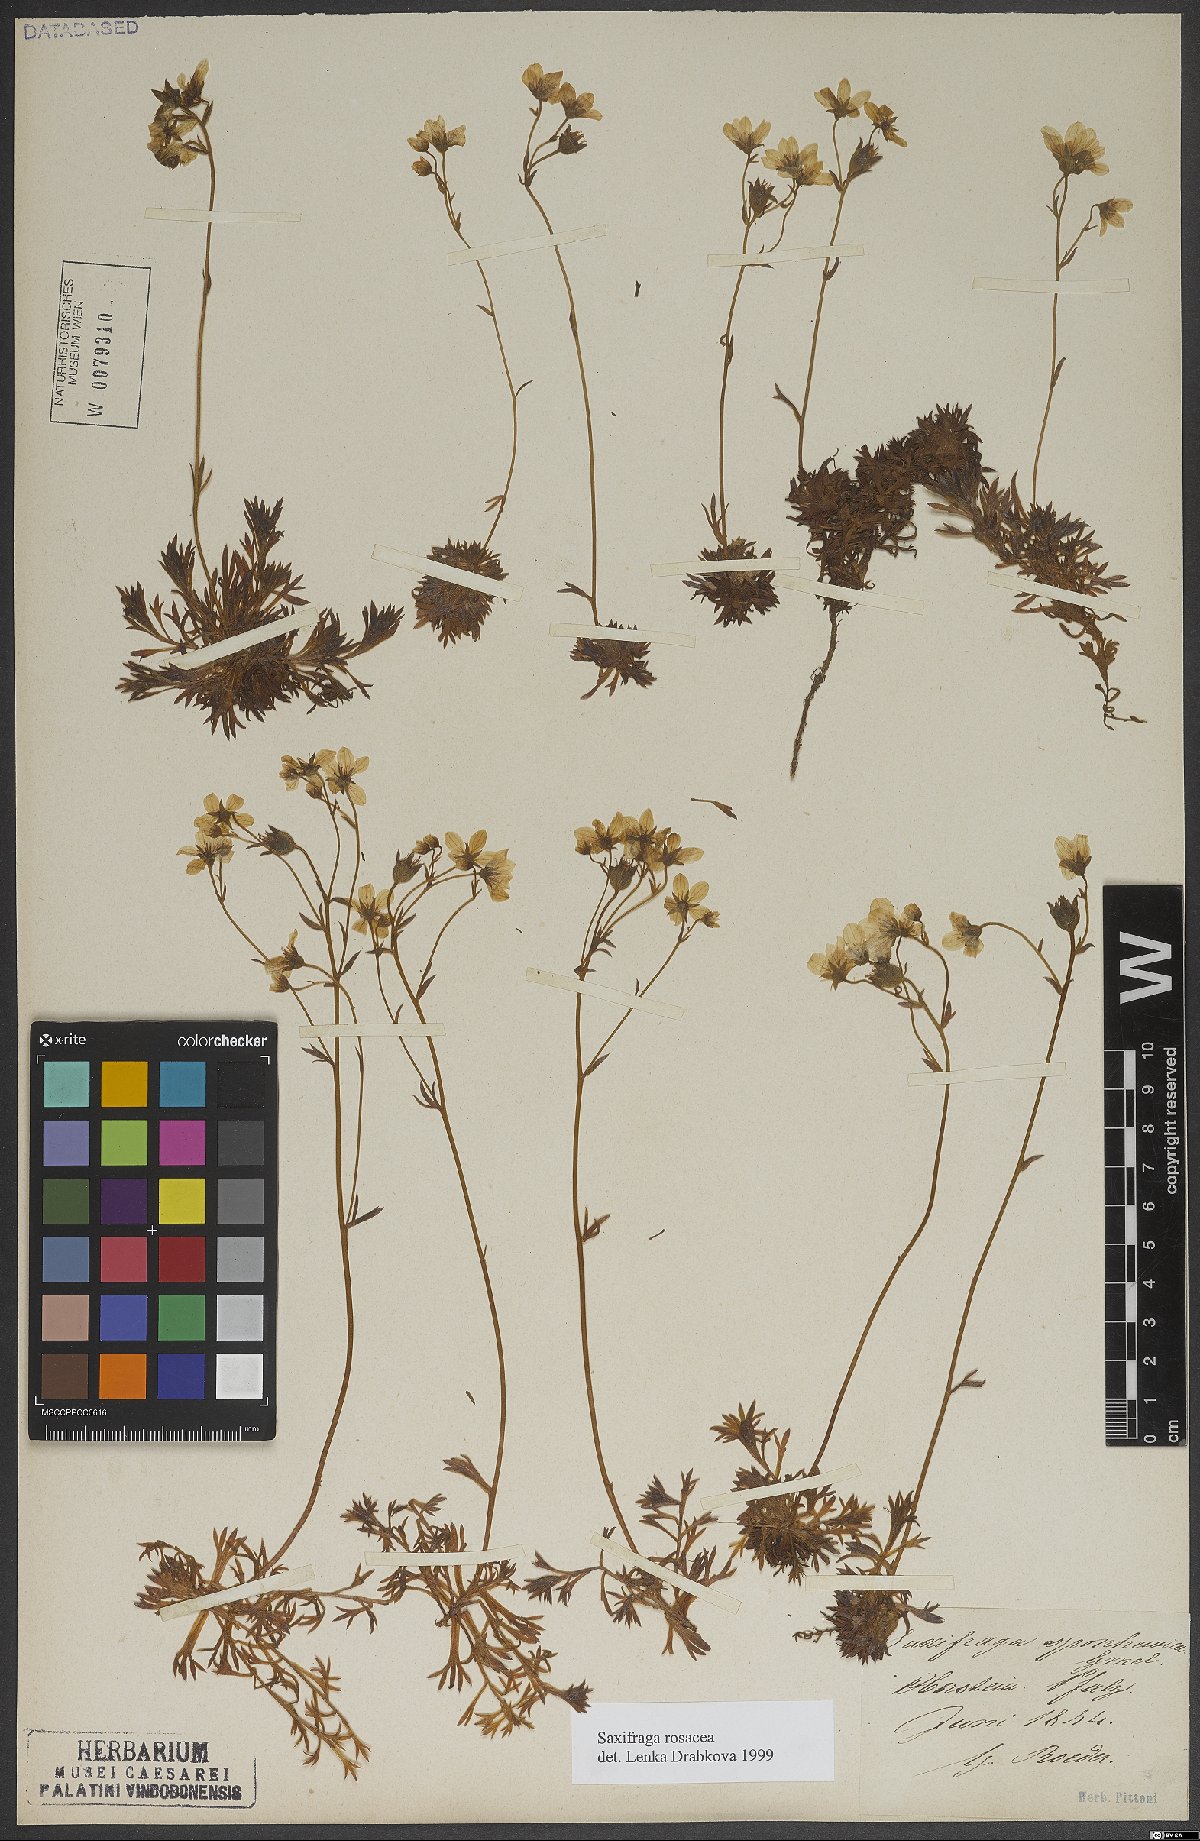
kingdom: Plantae
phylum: Tracheophyta
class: Magnoliopsida
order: Saxifragales
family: Saxifragaceae
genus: Saxifraga
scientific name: Saxifraga rosacea
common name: Irish saxifrage
